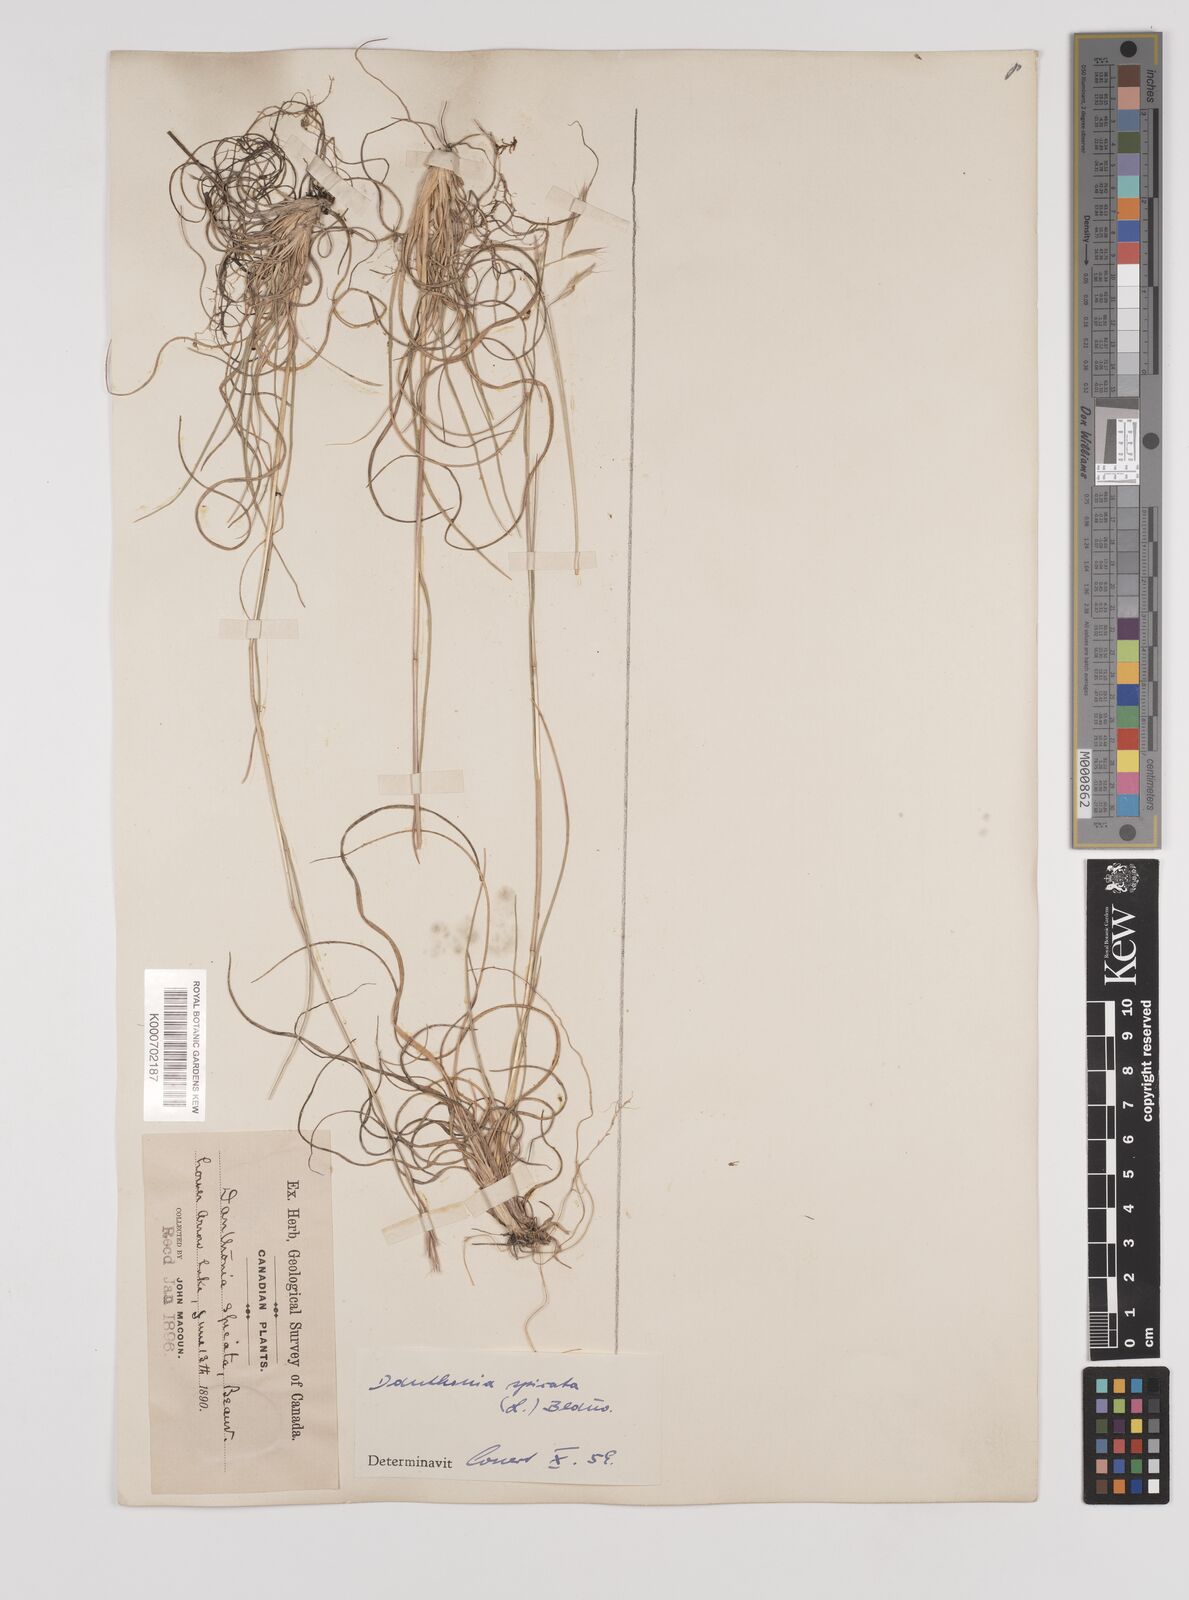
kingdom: Plantae
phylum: Tracheophyta
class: Liliopsida
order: Poales
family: Poaceae
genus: Danthonia
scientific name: Danthonia spicata
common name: Common wild oatgrass
